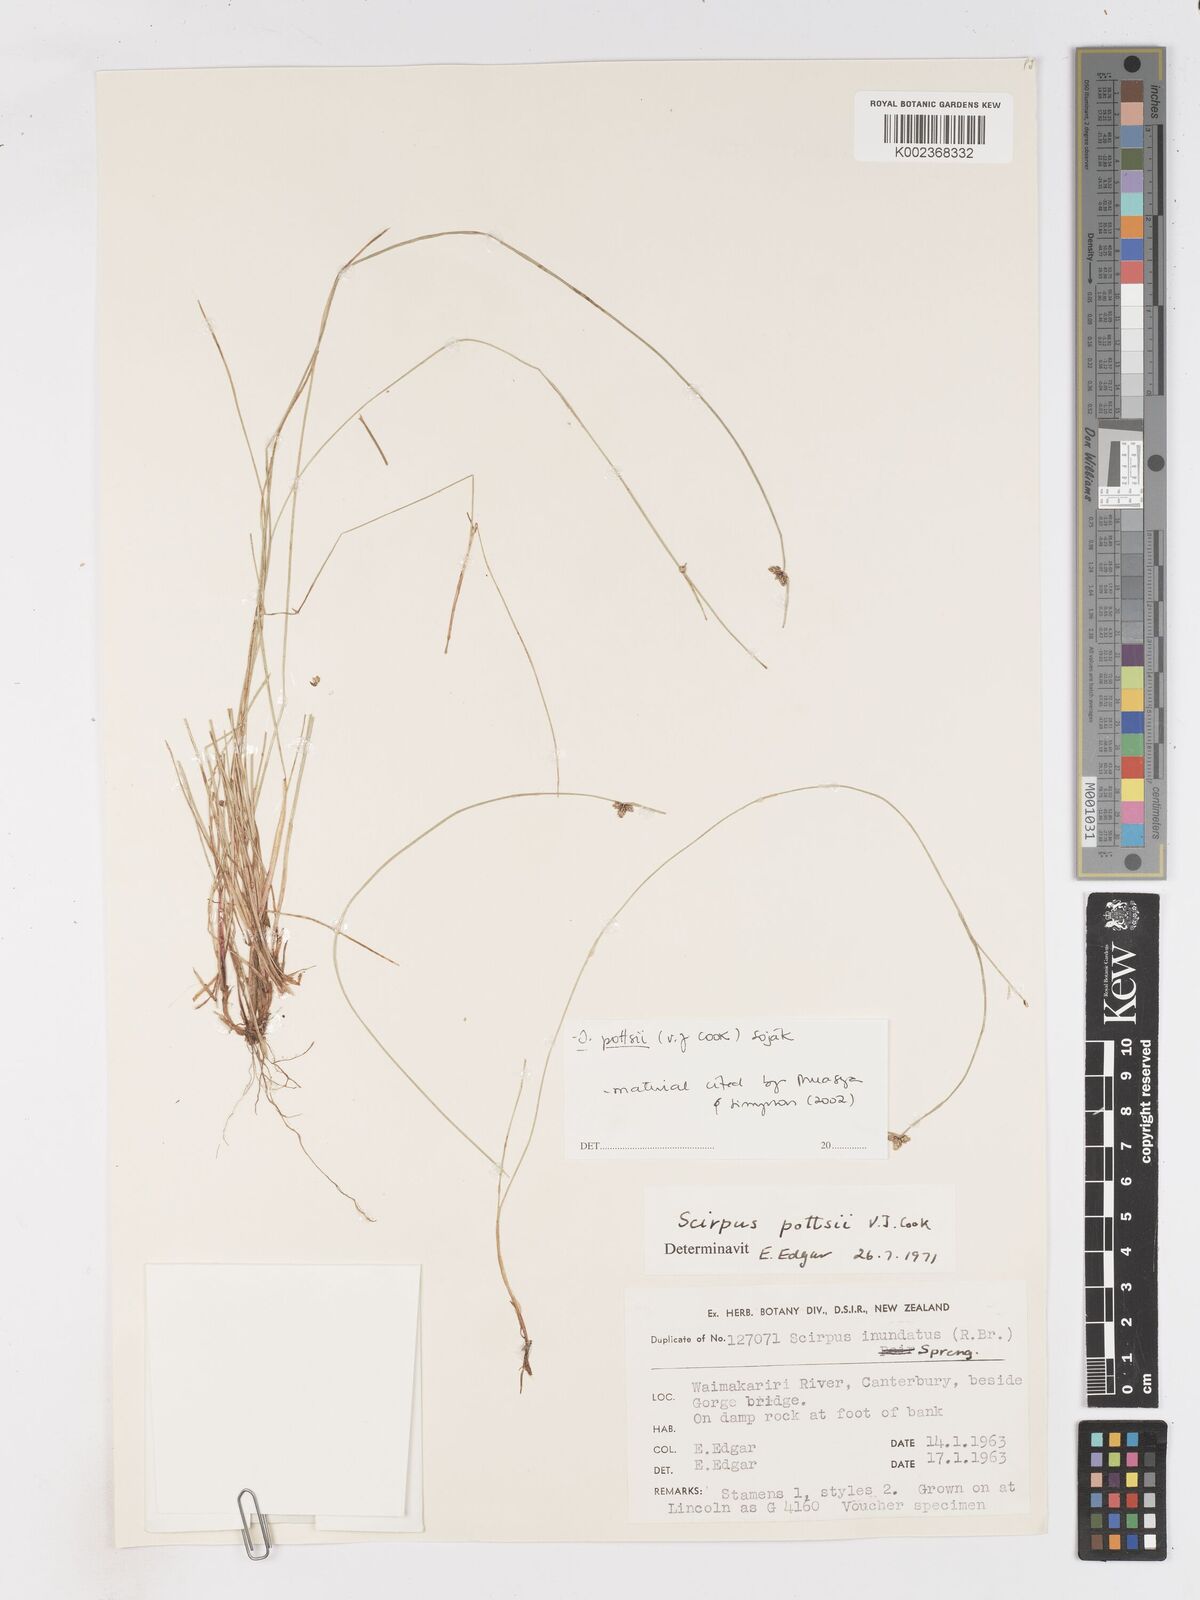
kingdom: Plantae
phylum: Tracheophyta
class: Liliopsida
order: Poales
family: Cyperaceae
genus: Isolepis
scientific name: Isolepis pottsii
